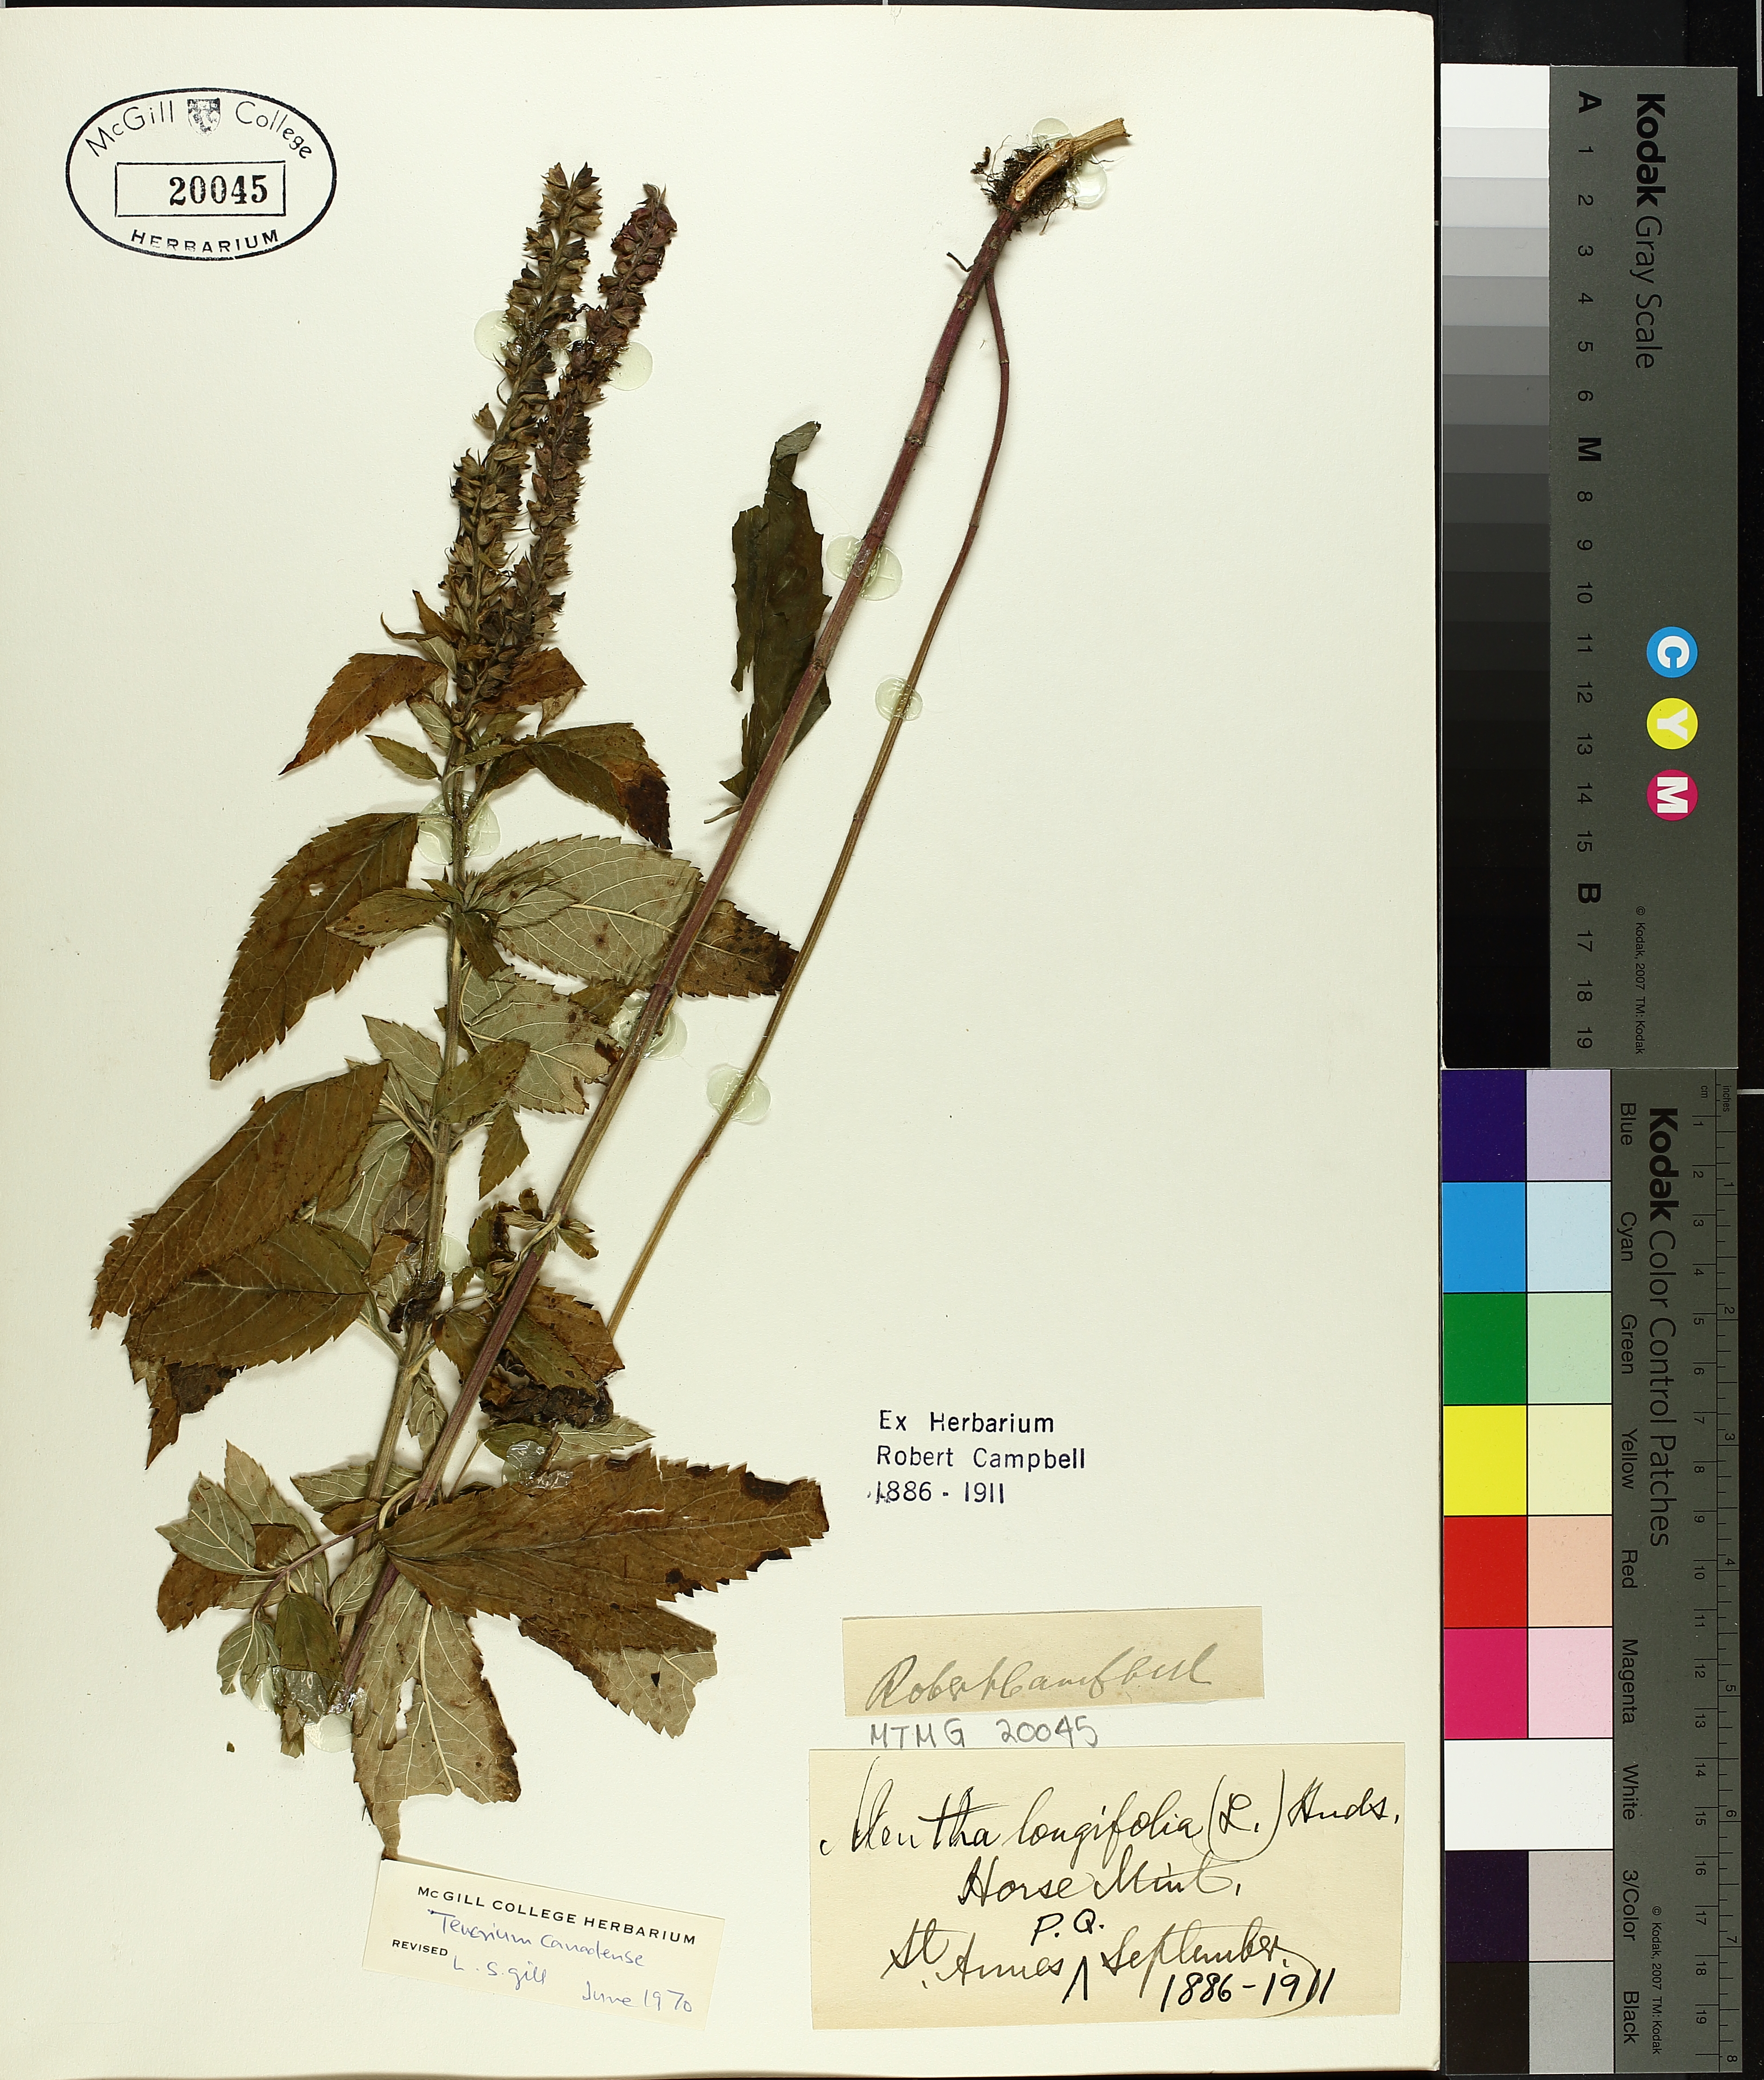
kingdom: Plantae
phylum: Tracheophyta
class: Magnoliopsida
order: Lamiales
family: Lamiaceae
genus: Teucrium
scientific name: Teucrium canadense
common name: American germander
